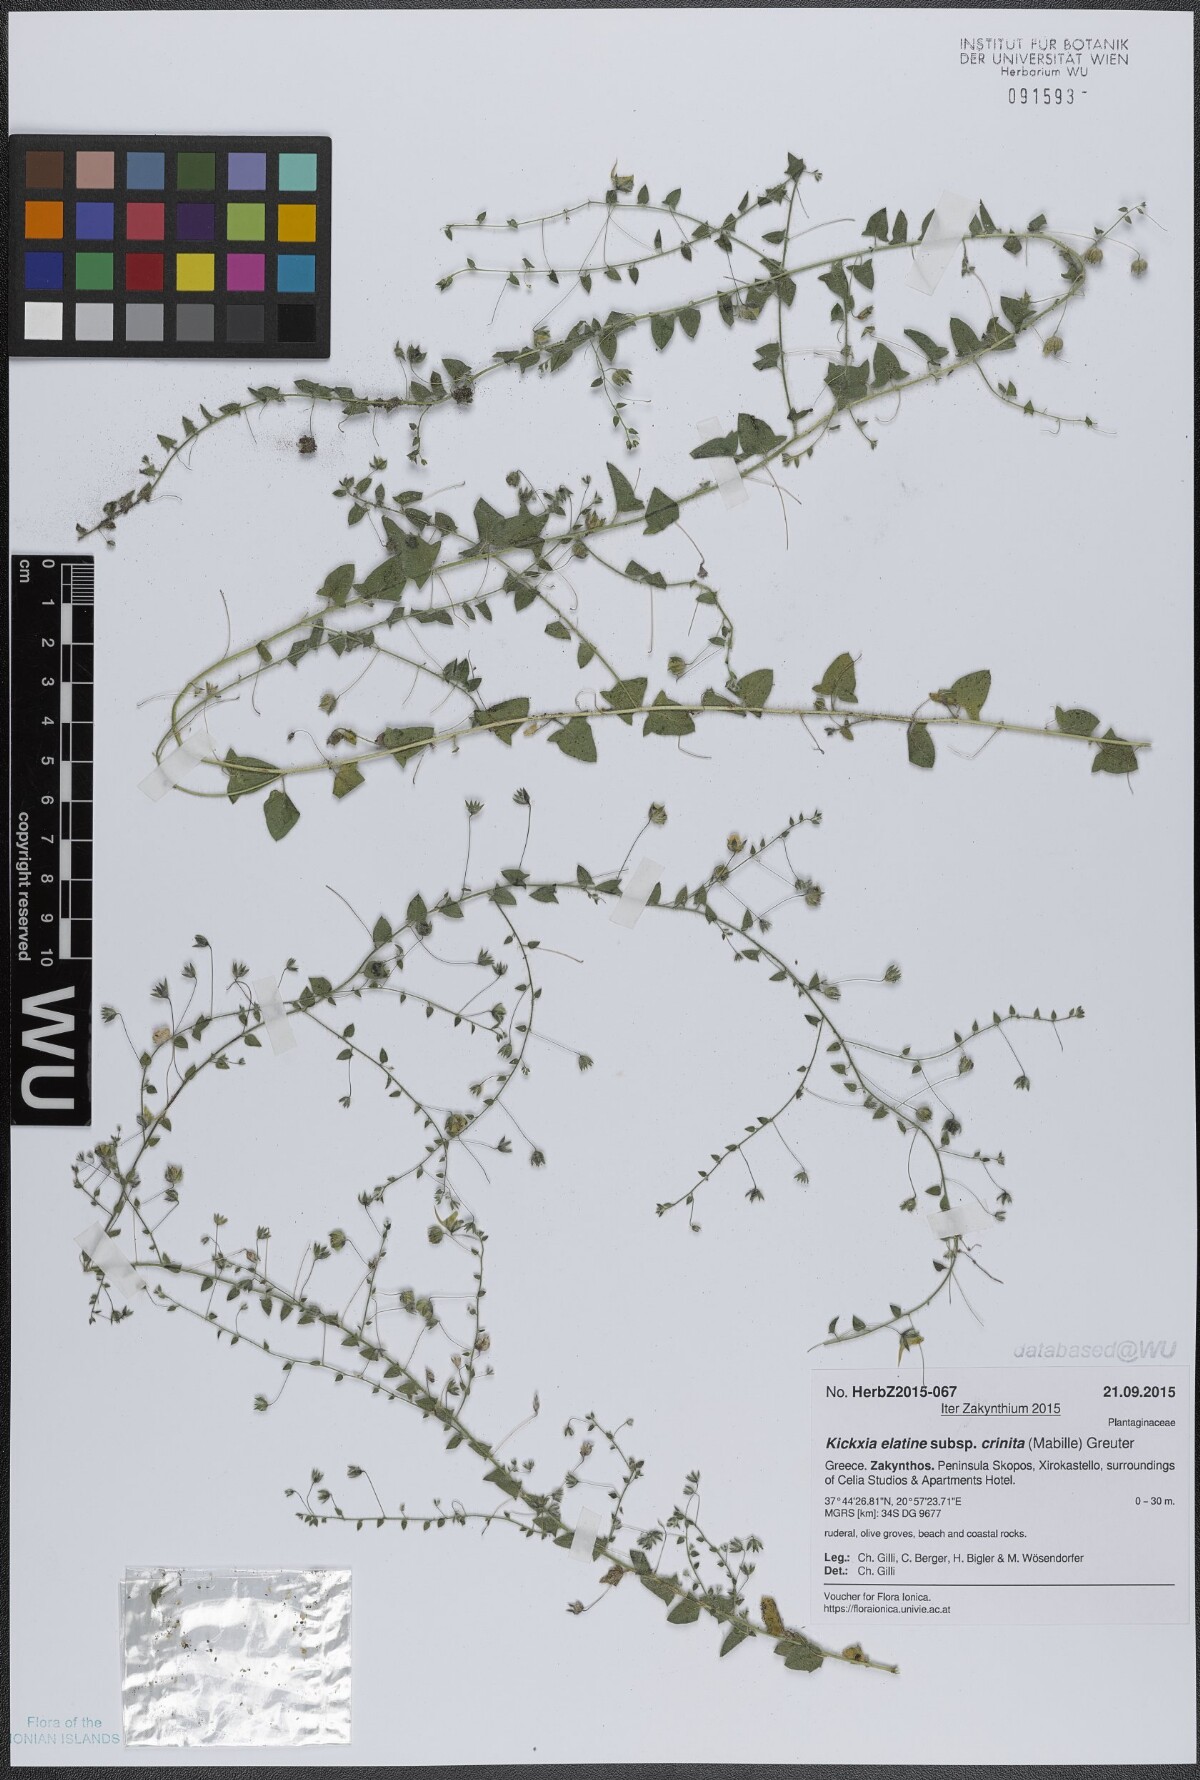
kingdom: Plantae
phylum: Tracheophyta
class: Magnoliopsida
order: Lamiales
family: Plantaginaceae
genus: Kickxia
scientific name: Kickxia elatine
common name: Sharp-leaved fluellen
